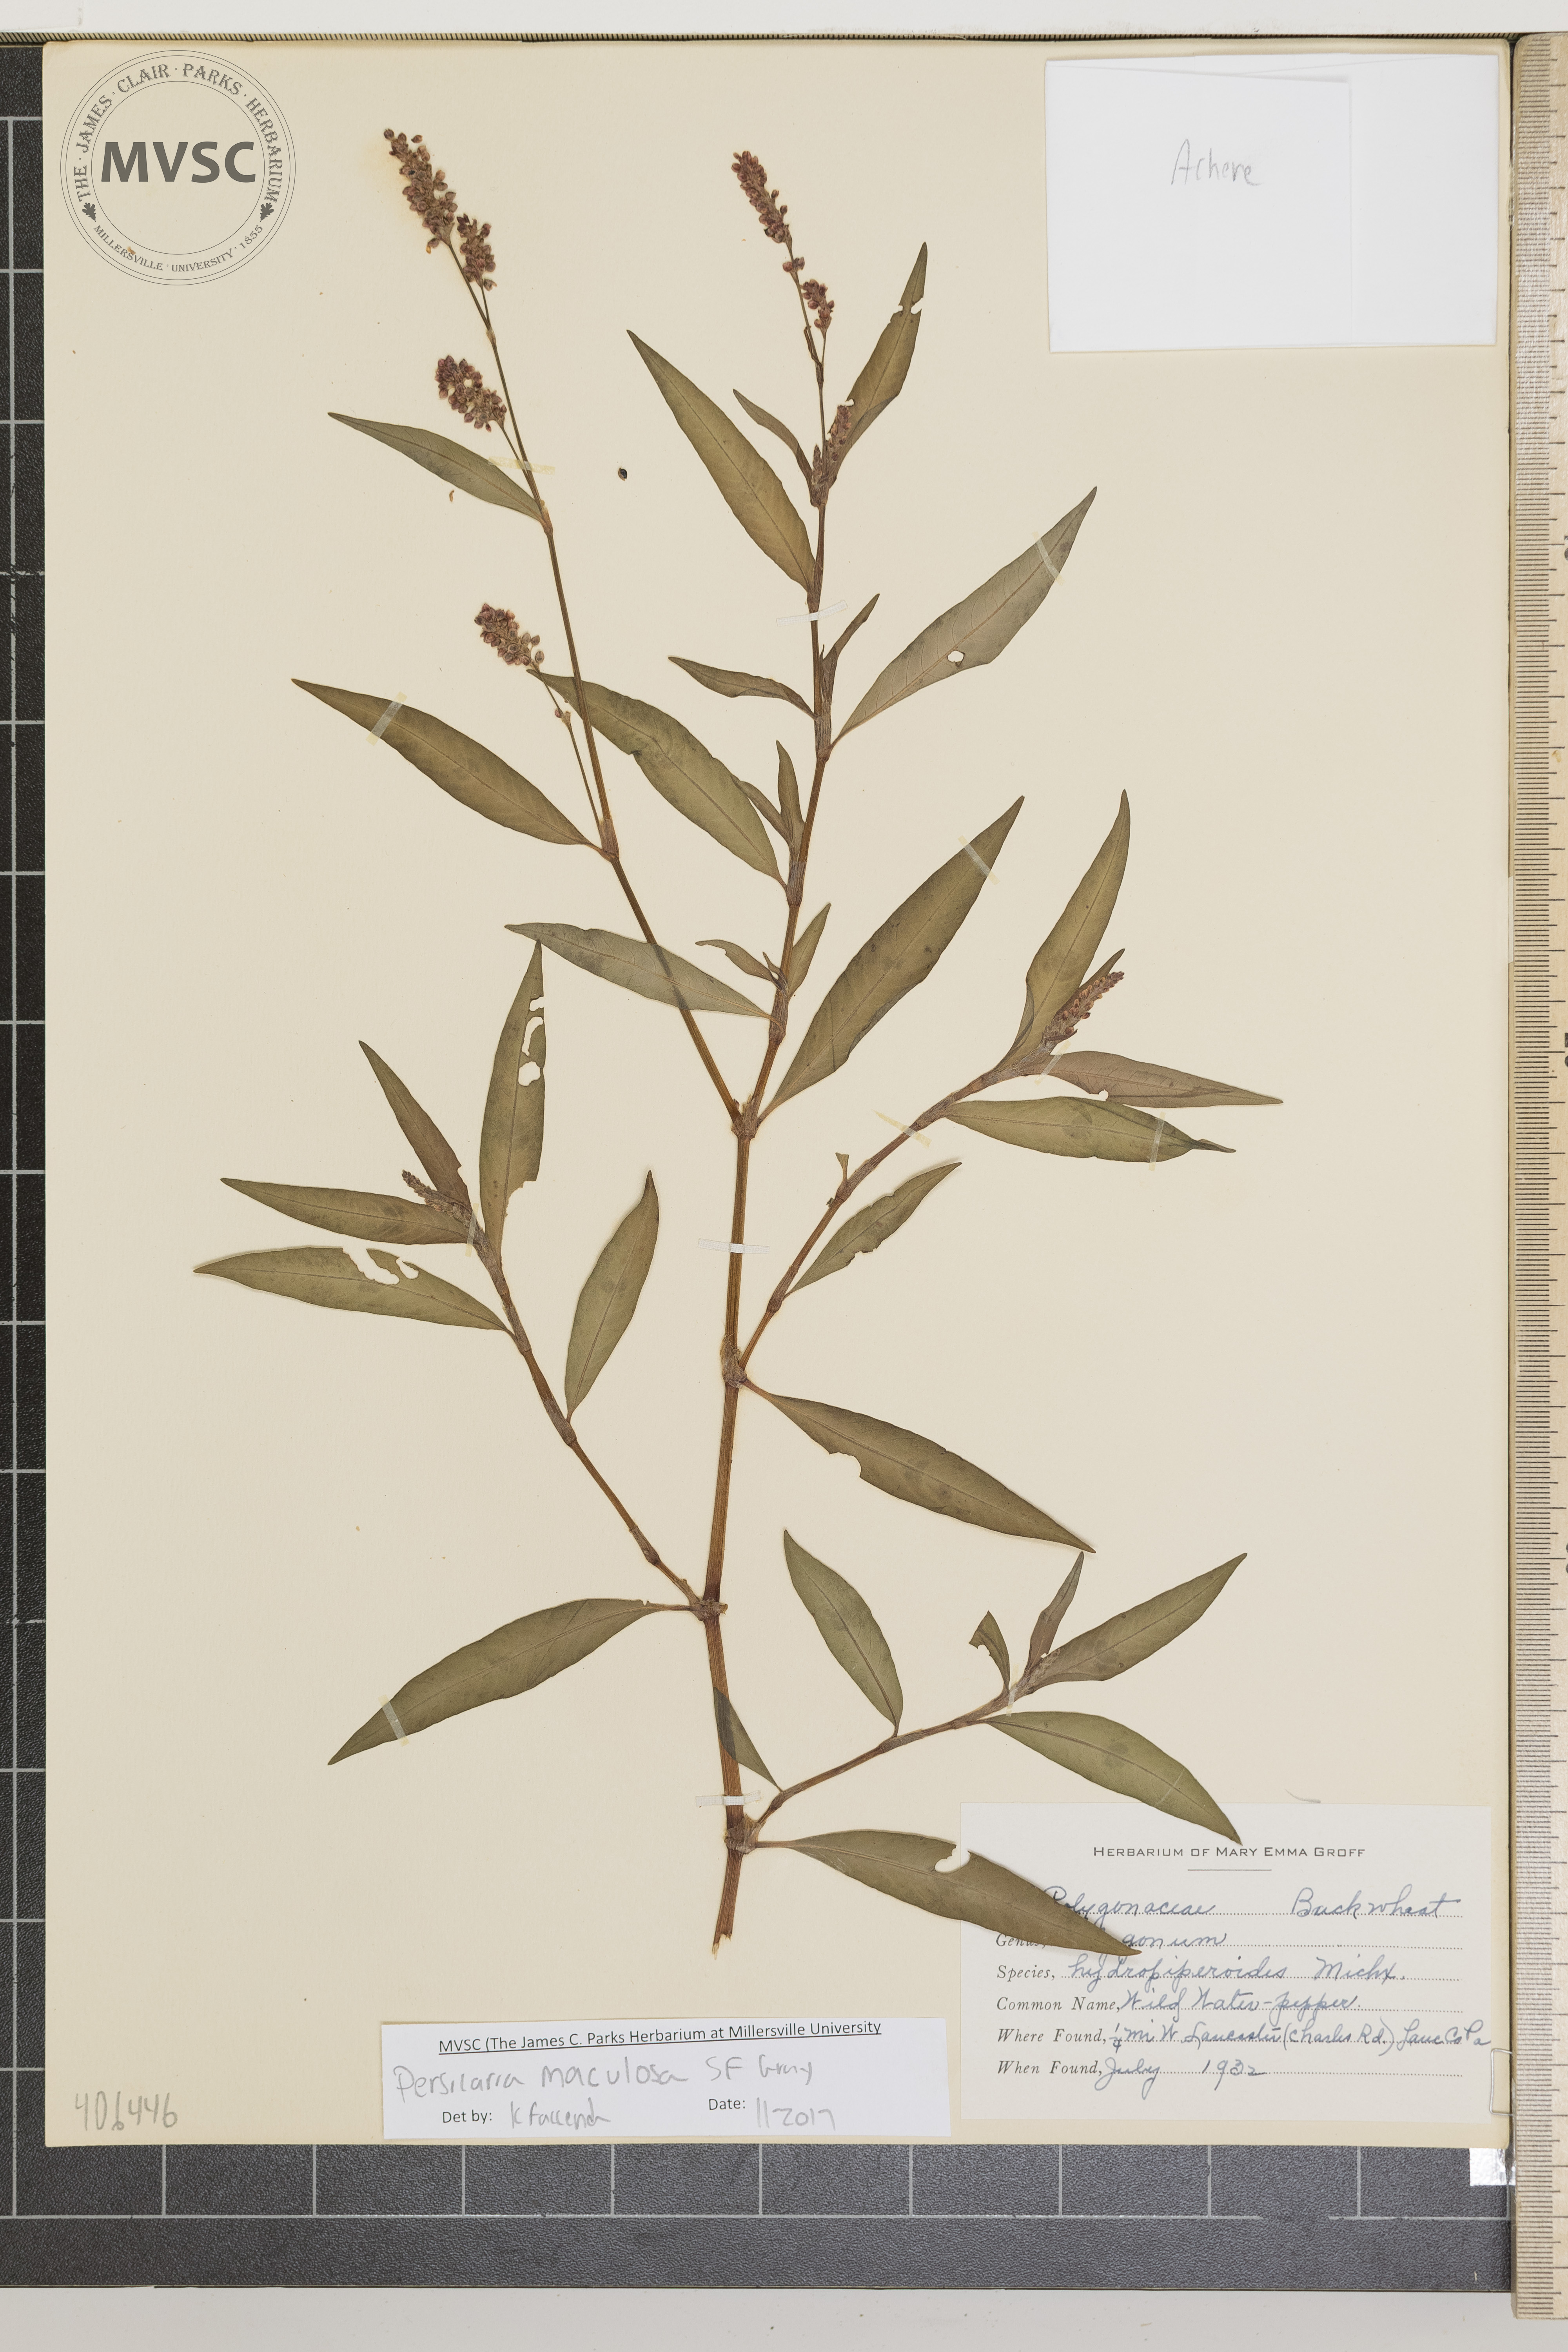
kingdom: Plantae
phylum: Tracheophyta
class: Magnoliopsida
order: Caryophyllales
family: Polygonaceae
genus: Persicaria
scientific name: Persicaria maculosa
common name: Redshank
